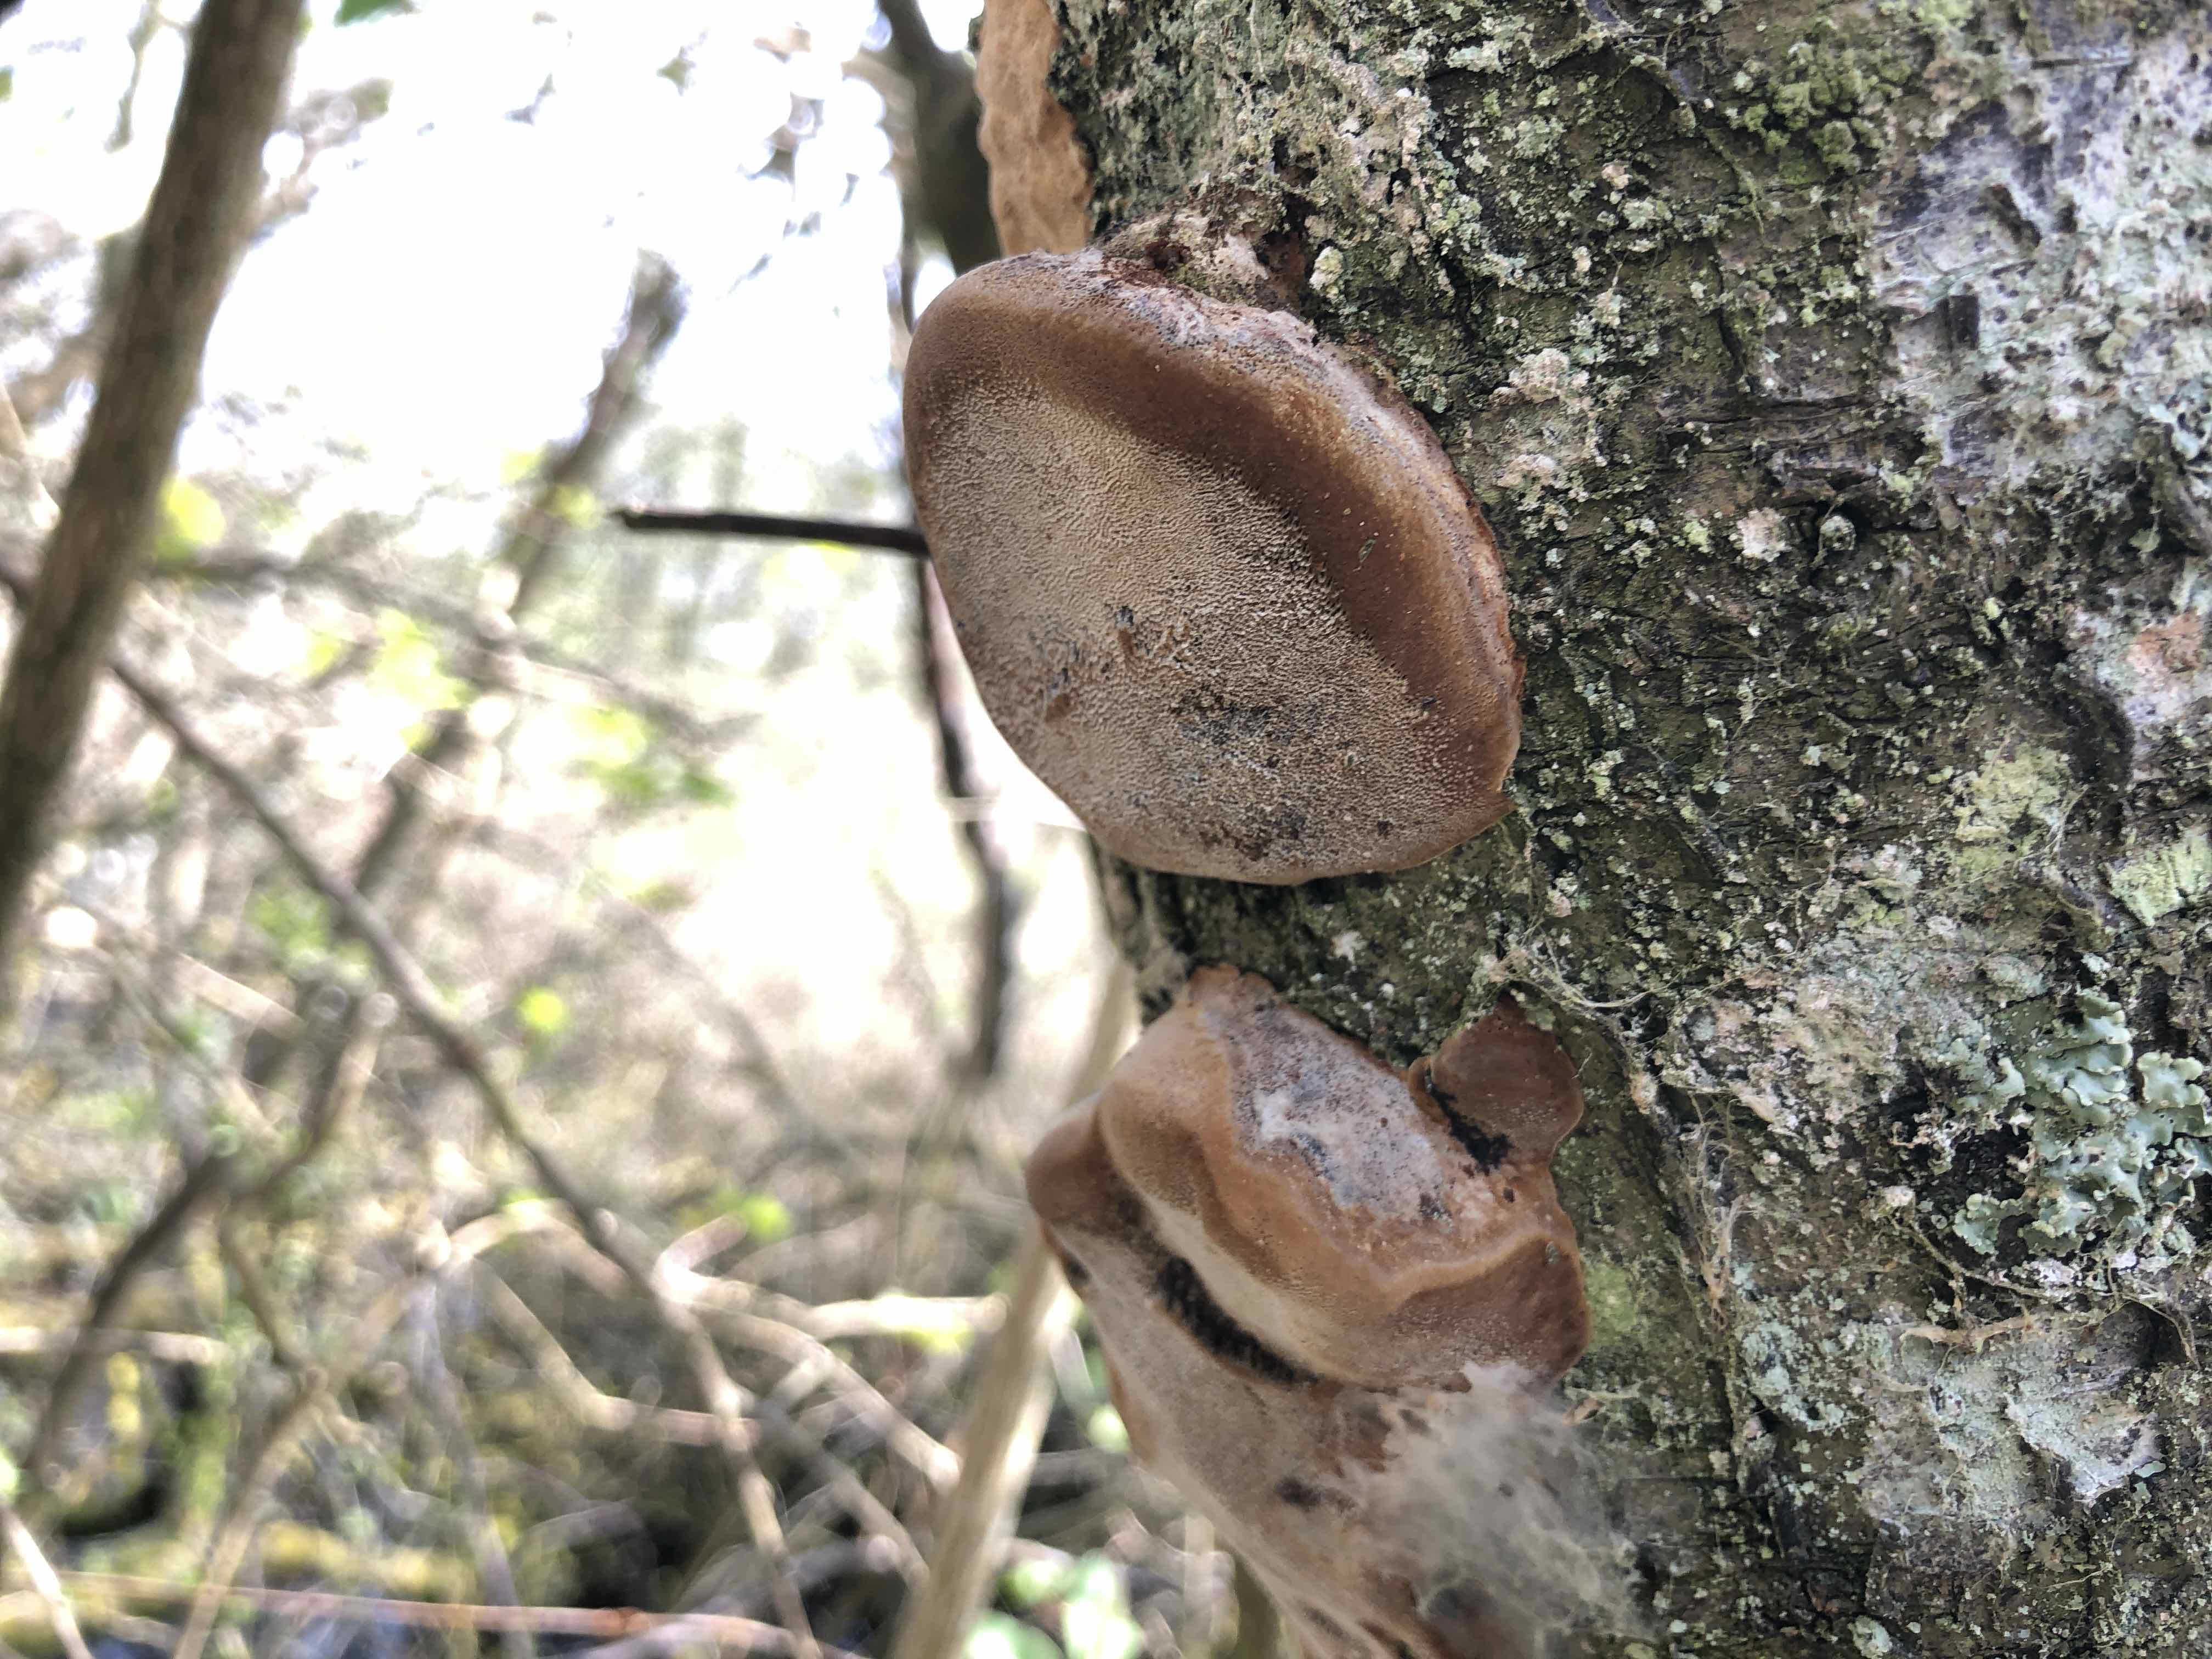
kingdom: Fungi
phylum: Basidiomycota
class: Agaricomycetes
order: Hymenochaetales
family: Hymenochaetaceae
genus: Phellinus
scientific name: Phellinus pomaceus
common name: blomme-ildporesvamp
